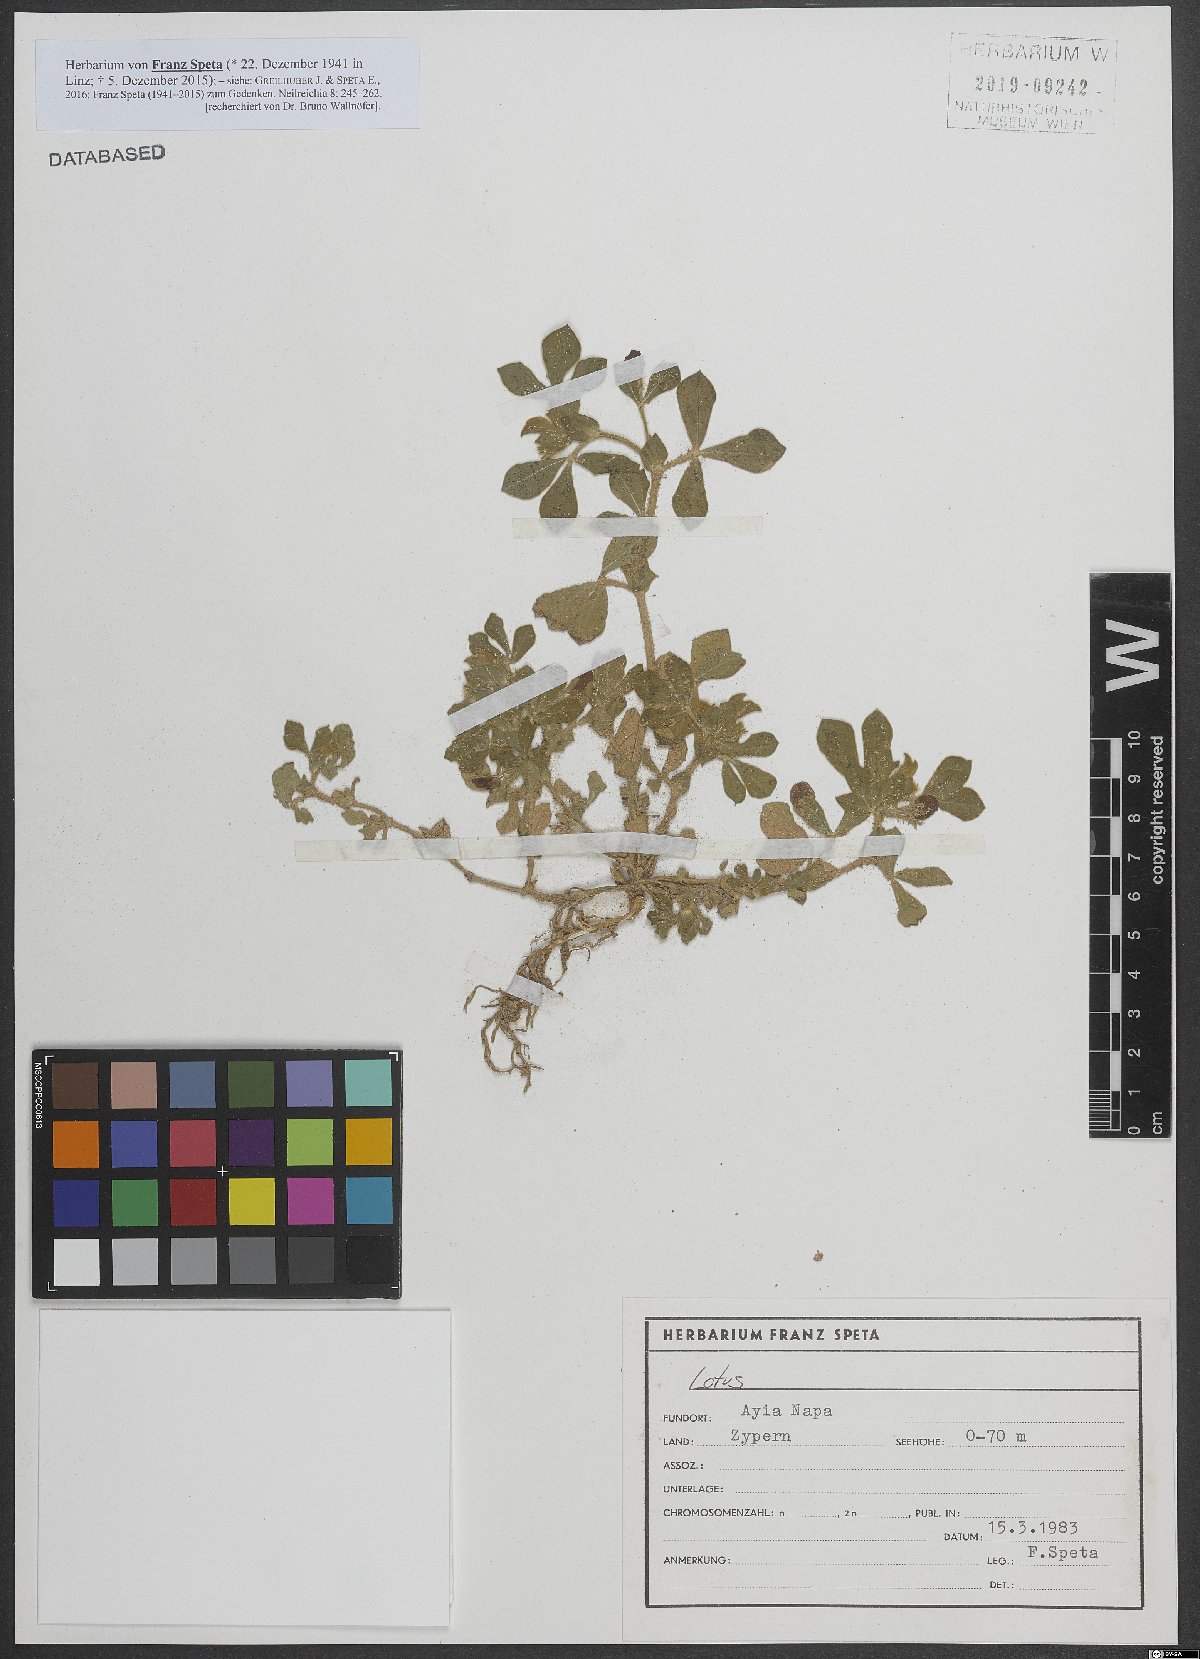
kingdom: Plantae
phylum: Tracheophyta
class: Magnoliopsida
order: Fabales
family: Fabaceae
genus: Lotus
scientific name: Lotus
